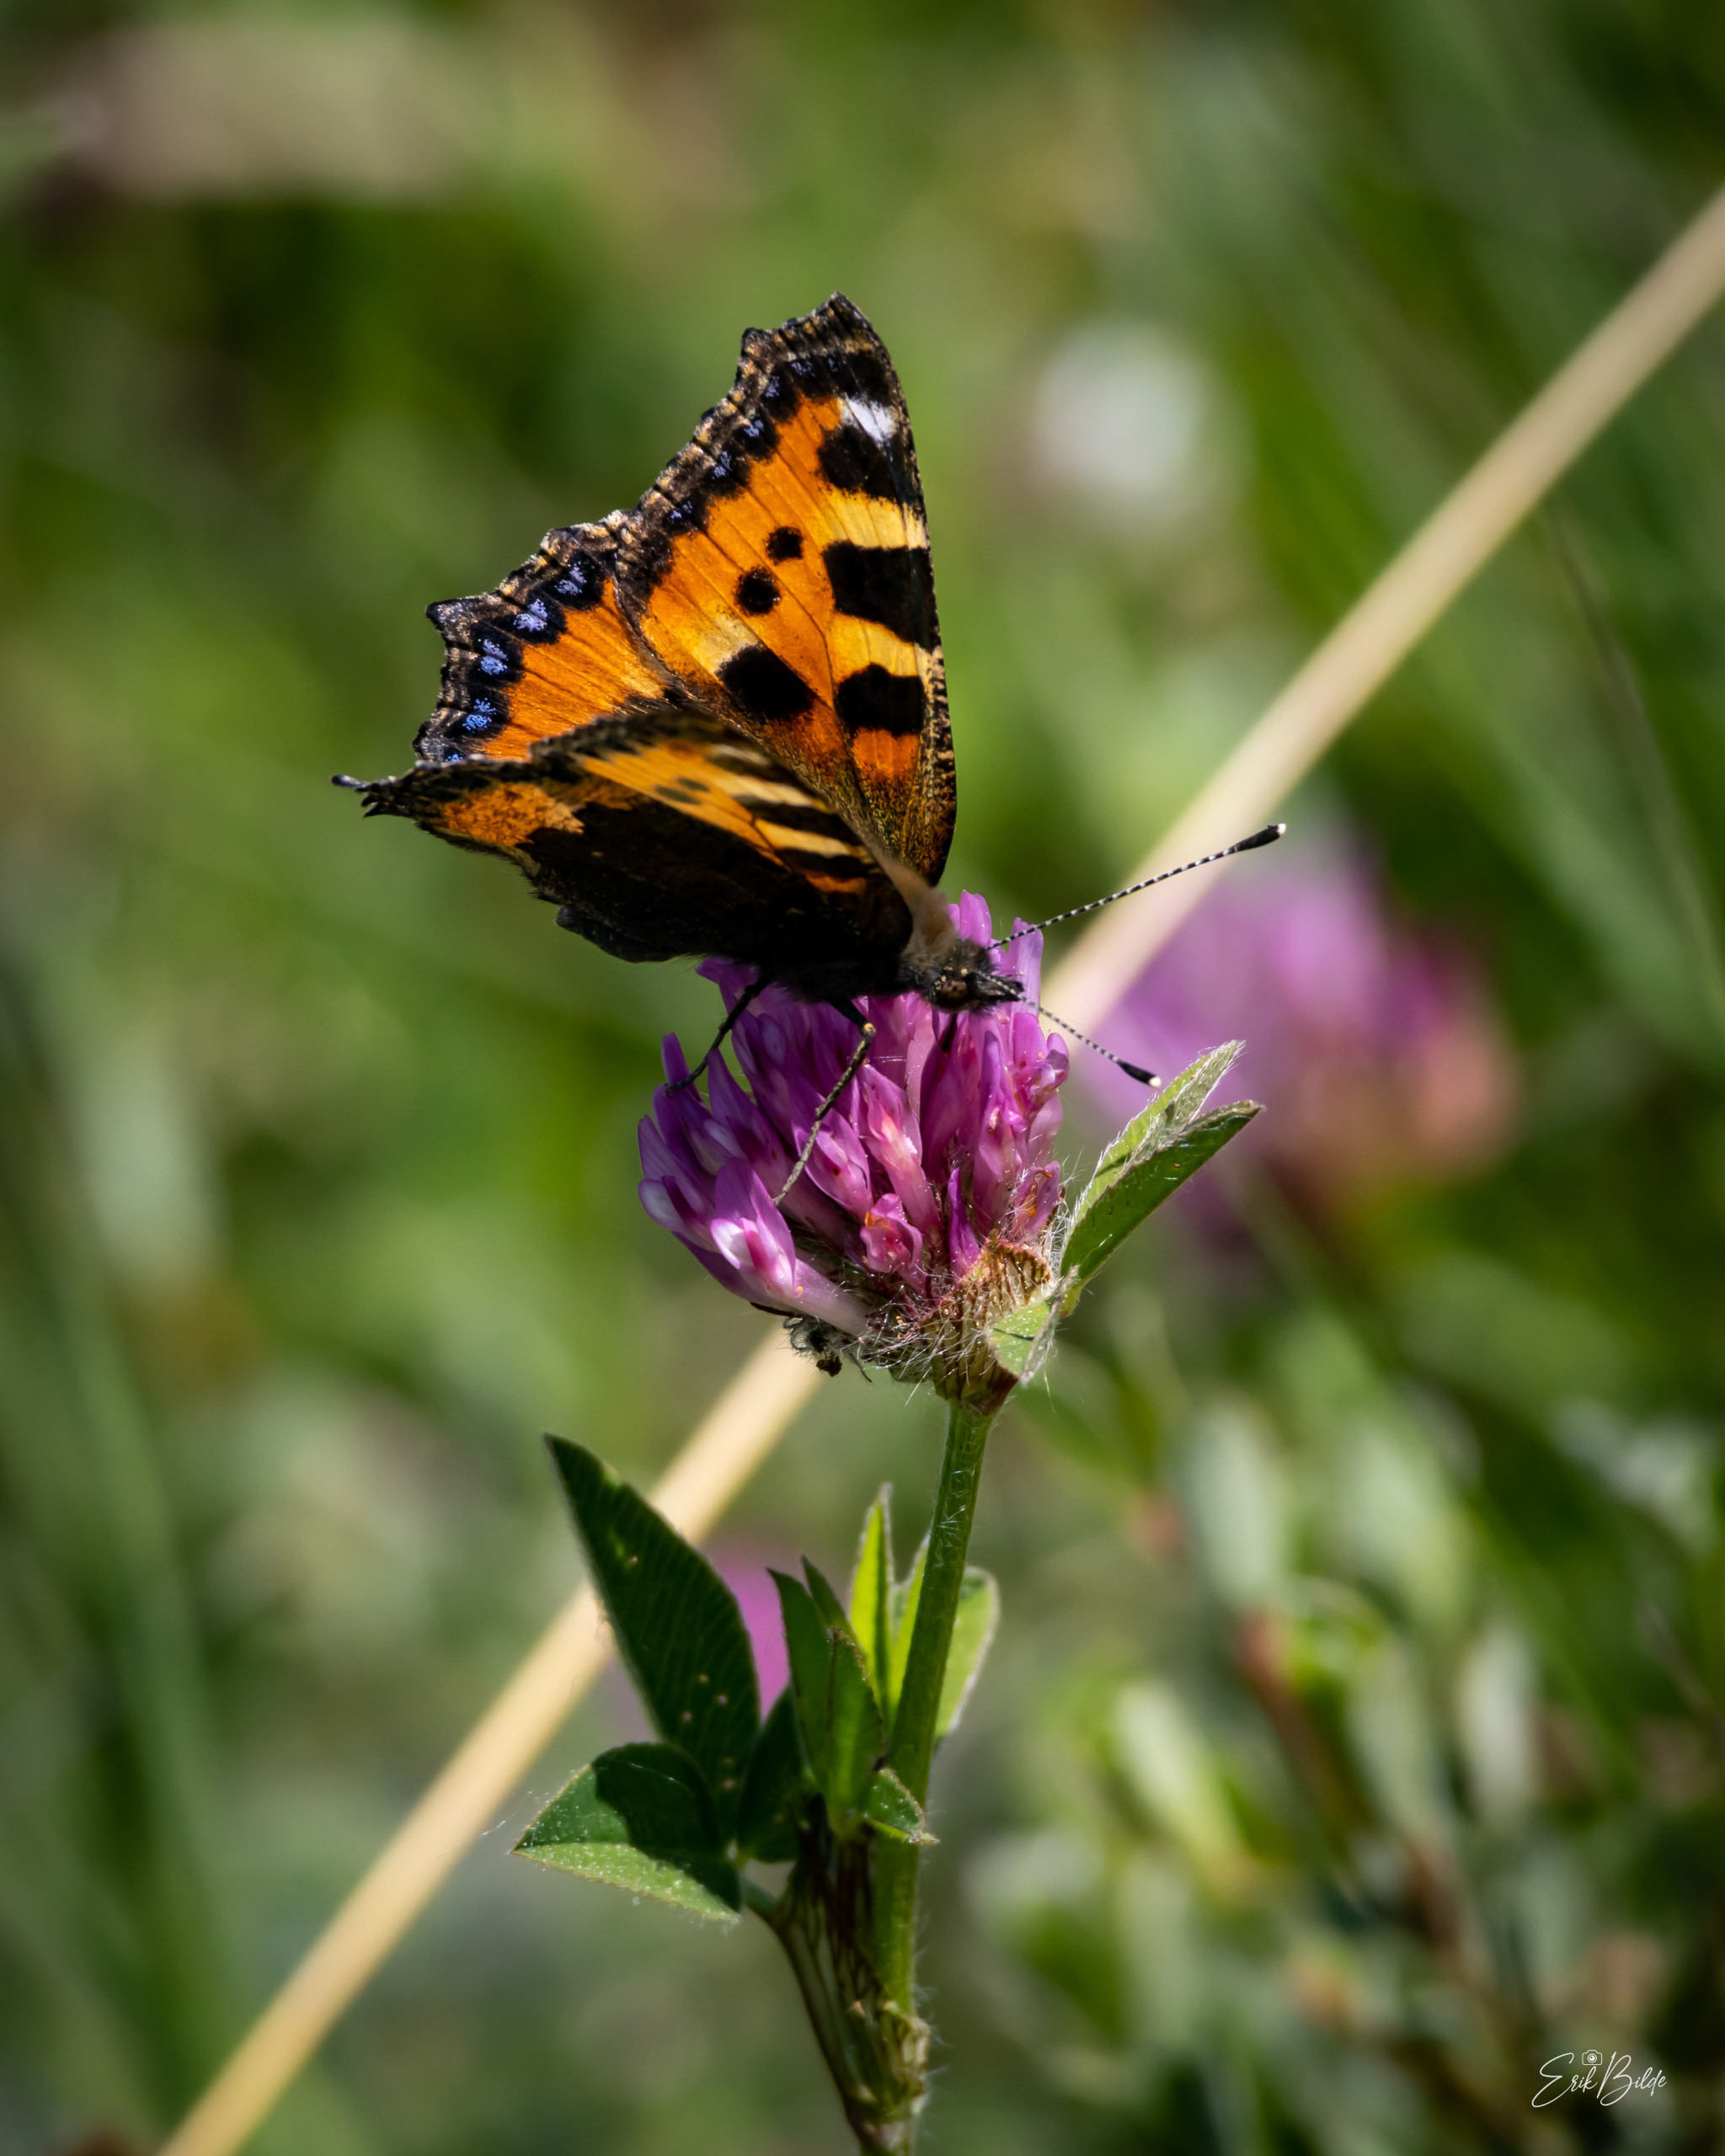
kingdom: Animalia
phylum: Arthropoda
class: Insecta
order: Lepidoptera
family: Nymphalidae
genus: Aglais
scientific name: Aglais urticae
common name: Nældens takvinge
